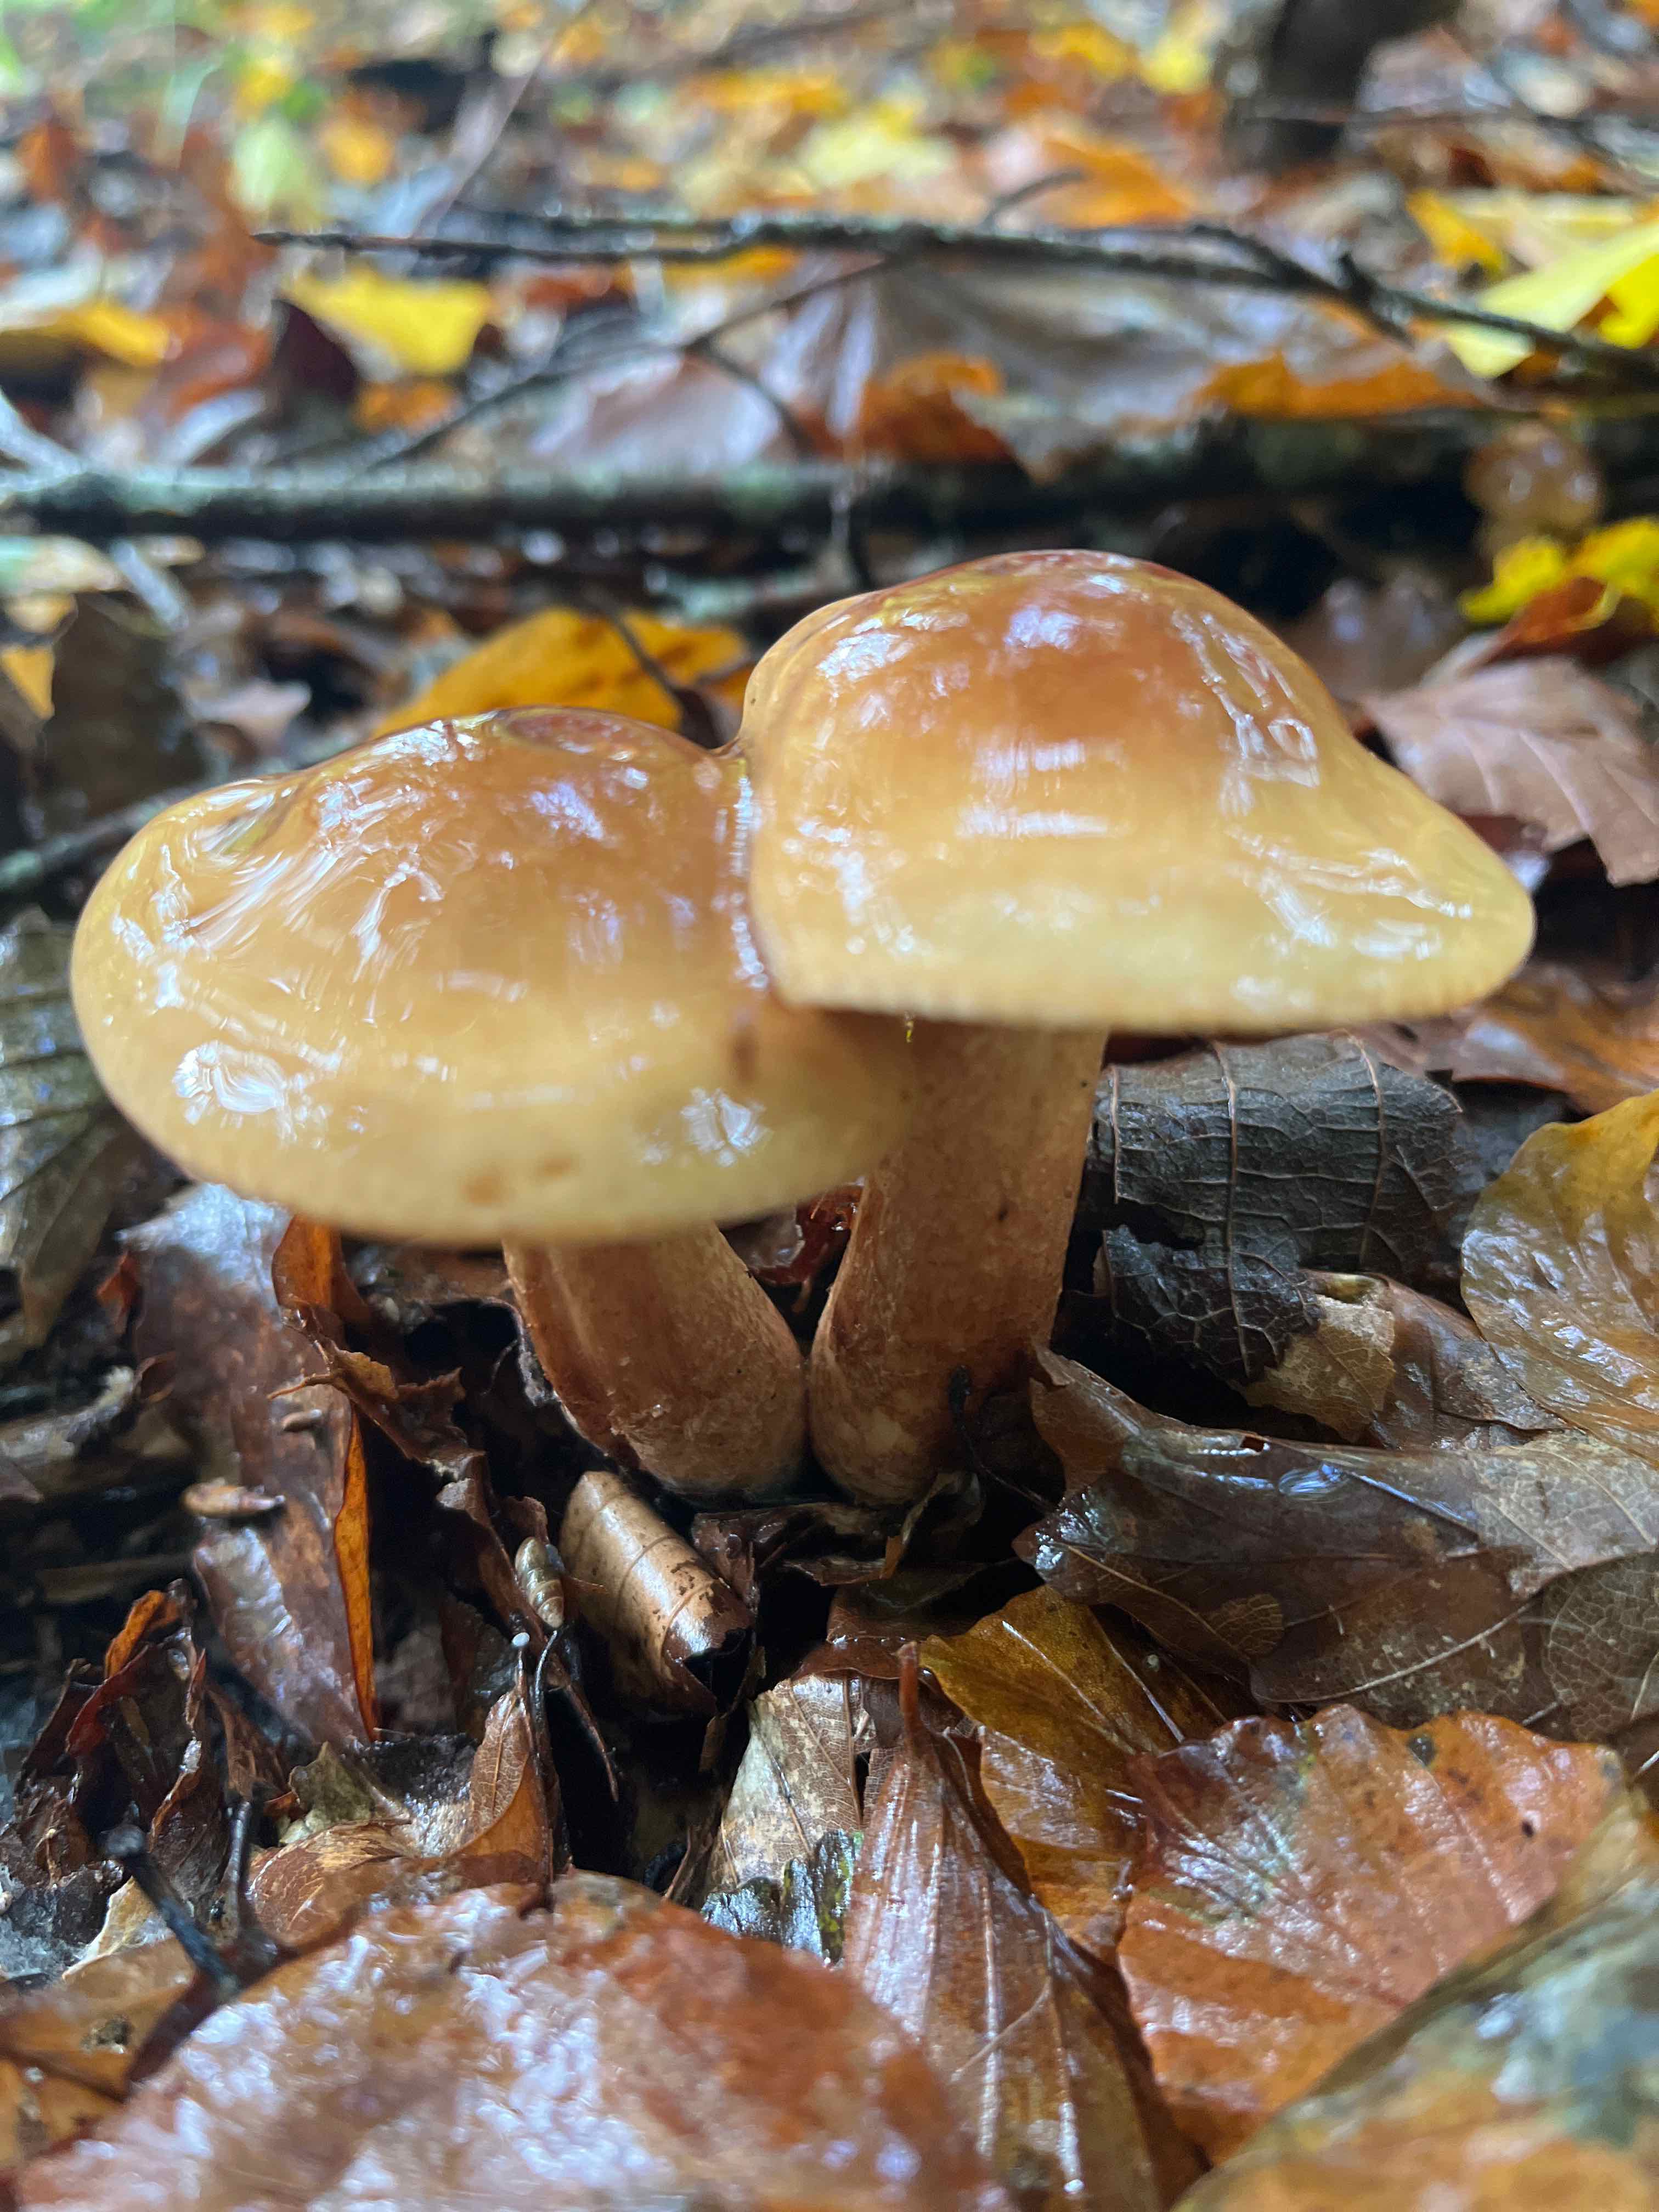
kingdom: Fungi
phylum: Basidiomycota
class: Agaricomycetes
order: Agaricales
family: Tricholomataceae
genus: Tricholoma
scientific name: Tricholoma ustale
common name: sveden ridderhat
